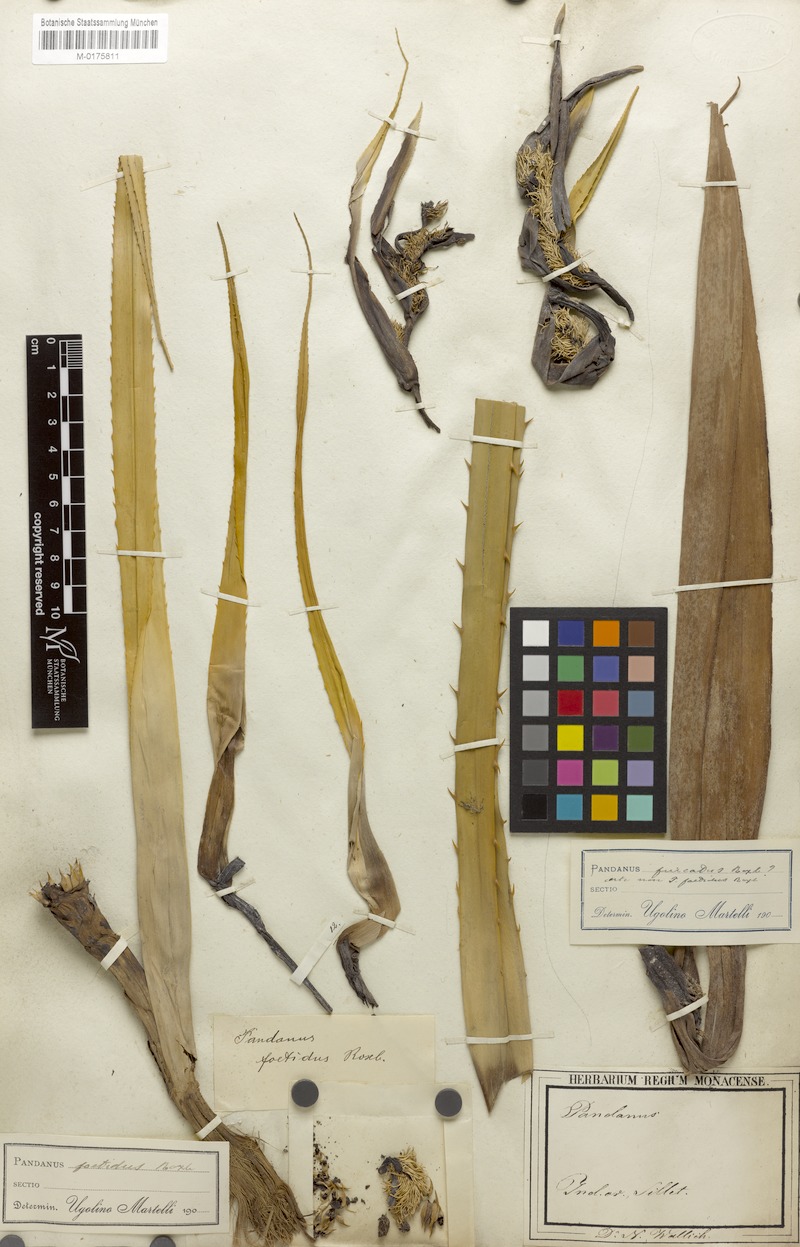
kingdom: Plantae
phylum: Tracheophyta
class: Liliopsida
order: Pandanales
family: Pandanaceae
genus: Benstonea
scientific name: Benstonea foetida
